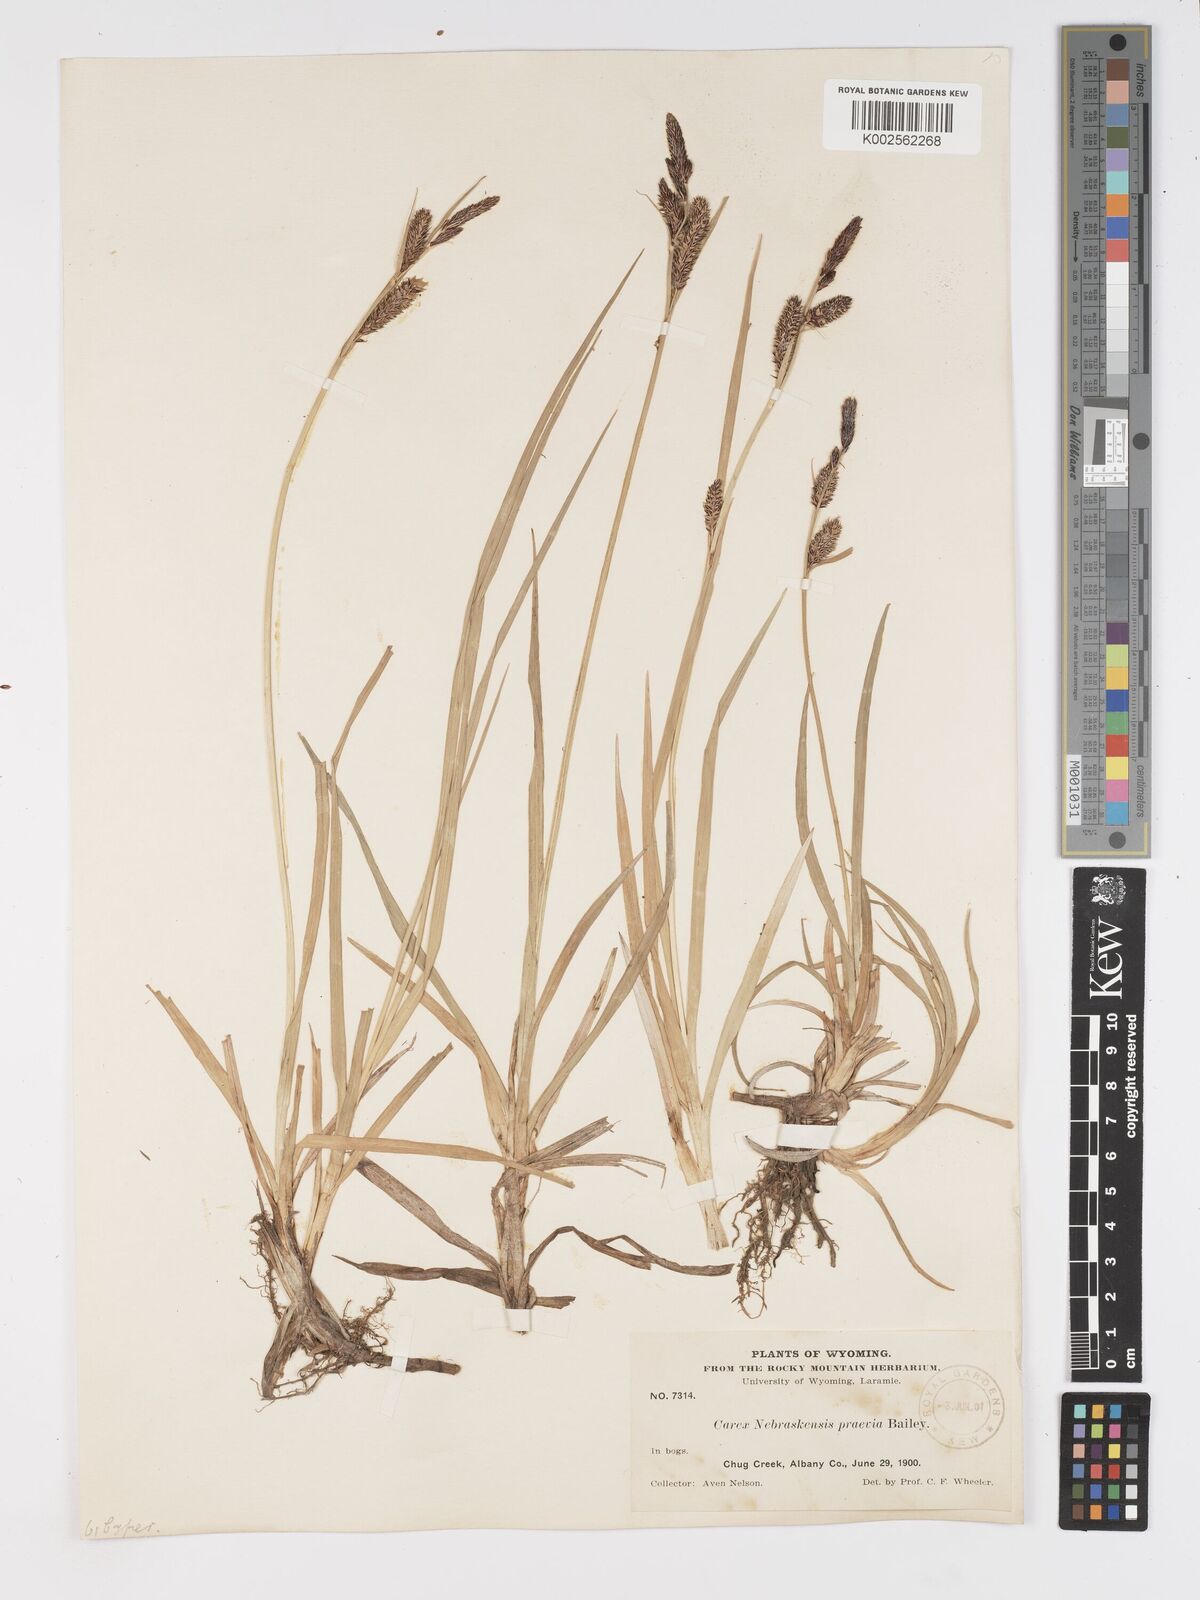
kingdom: Plantae
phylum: Tracheophyta
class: Liliopsida
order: Poales
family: Cyperaceae
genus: Carex
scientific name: Carex nebrascensis
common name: Nebraska sedge
